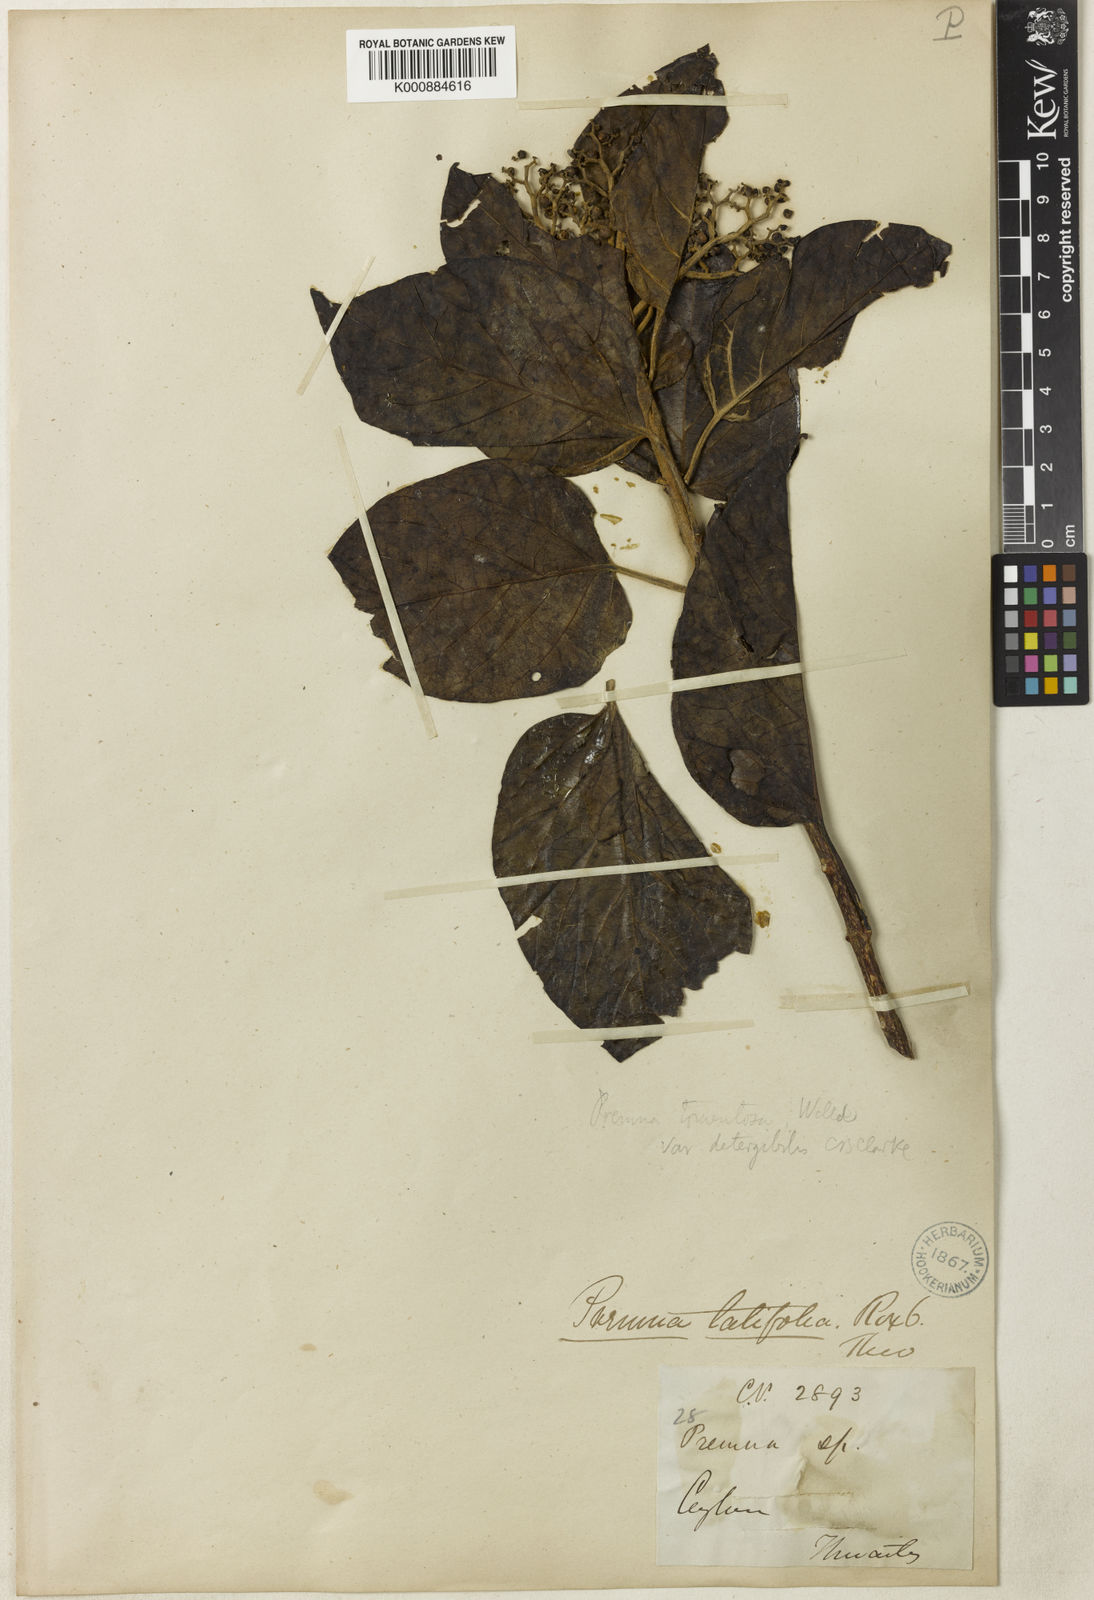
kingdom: Plantae
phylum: Tracheophyta
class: Magnoliopsida
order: Lamiales
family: Lamiaceae
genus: Premna
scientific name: Premna milleflora
